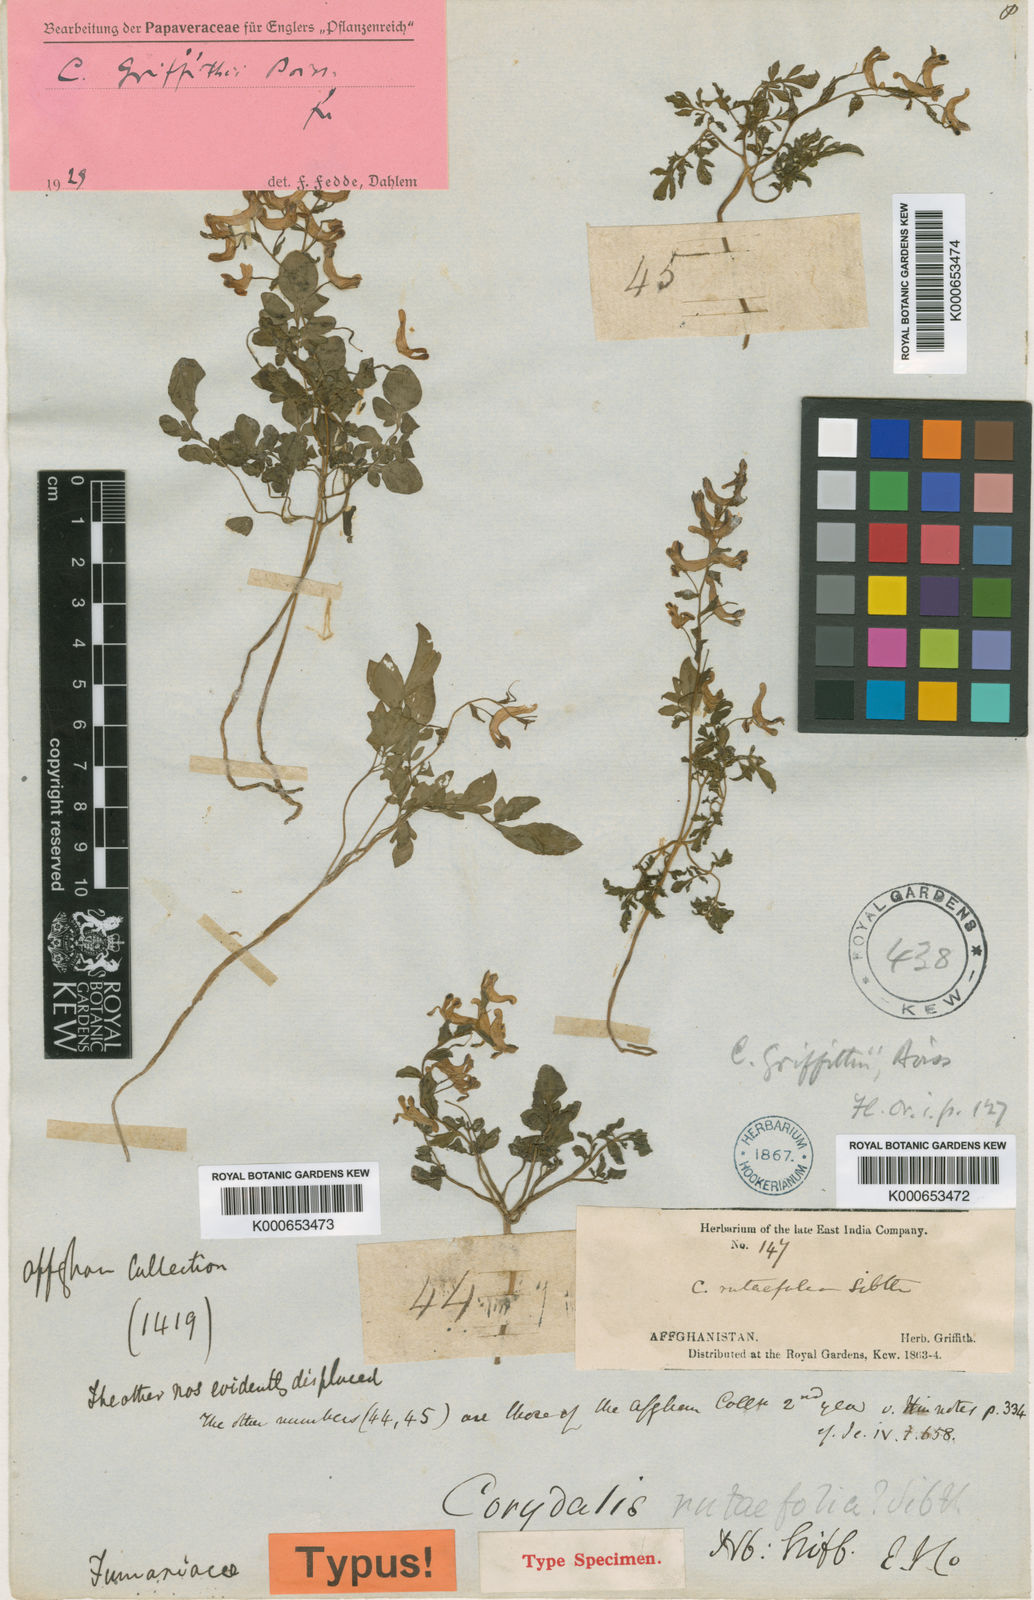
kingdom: Plantae
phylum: Tracheophyta
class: Magnoliopsida
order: Ranunculales
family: Papaveraceae
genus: Corydalis
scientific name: Corydalis griffithii
